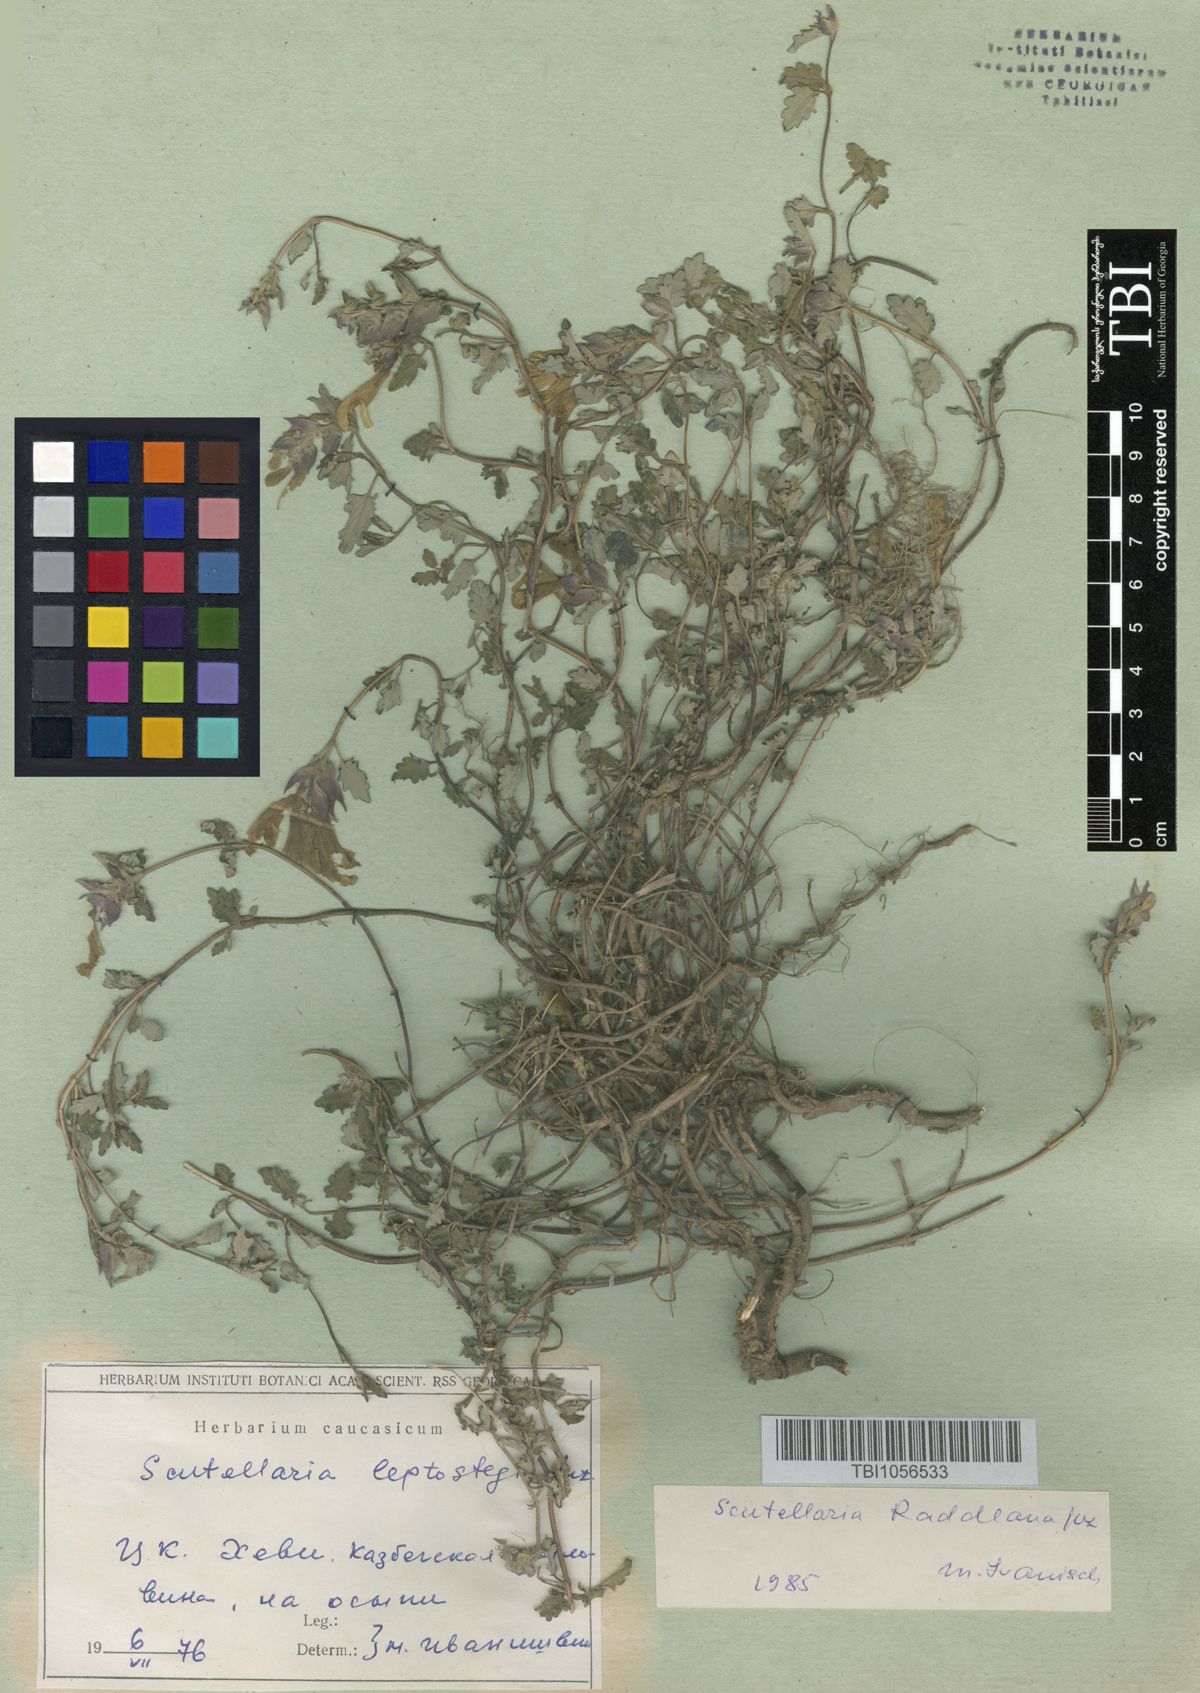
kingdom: Plantae
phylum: Tracheophyta
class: Magnoliopsida
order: Lamiales
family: Lamiaceae
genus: Scutellaria
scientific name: Scutellaria leptostegia
